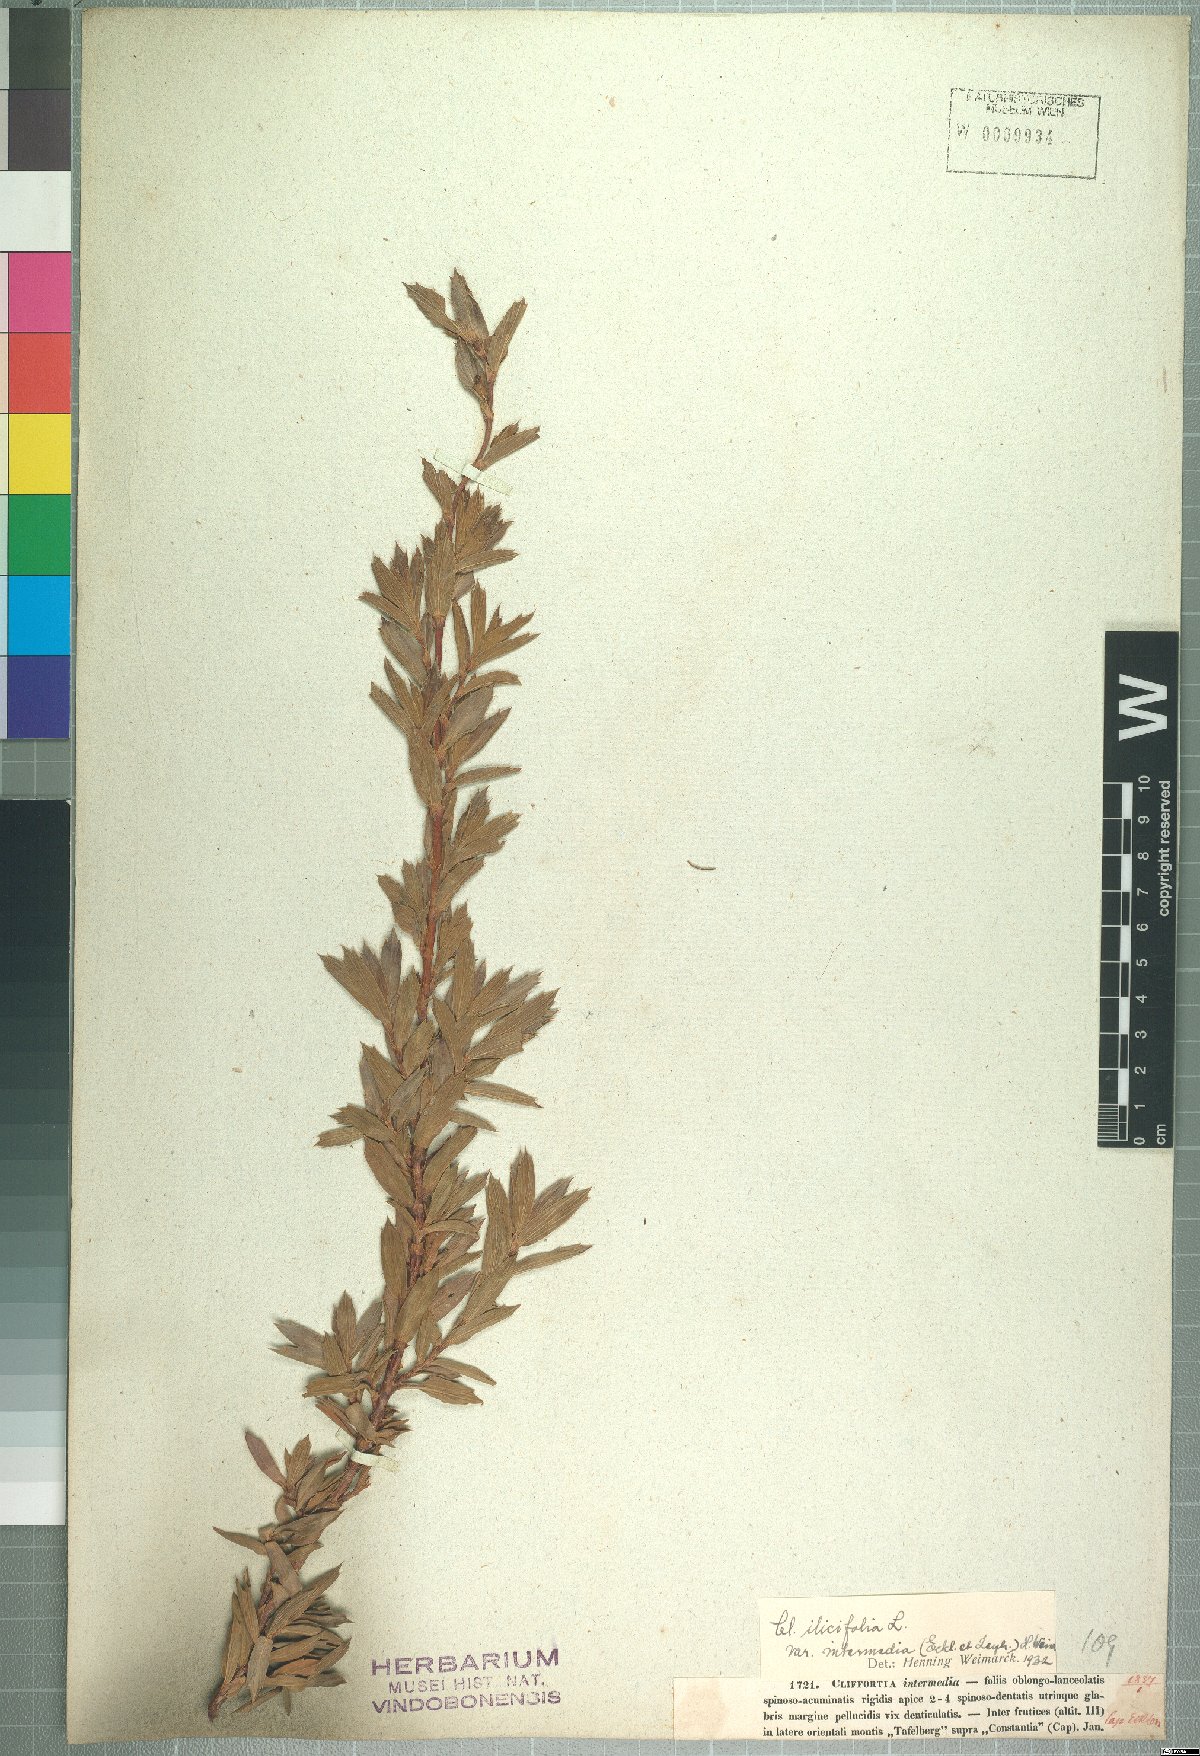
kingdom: Plantae
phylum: Tracheophyta
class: Magnoliopsida
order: Rosales
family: Rosaceae
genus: Cliffortia
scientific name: Cliffortia intermedia
